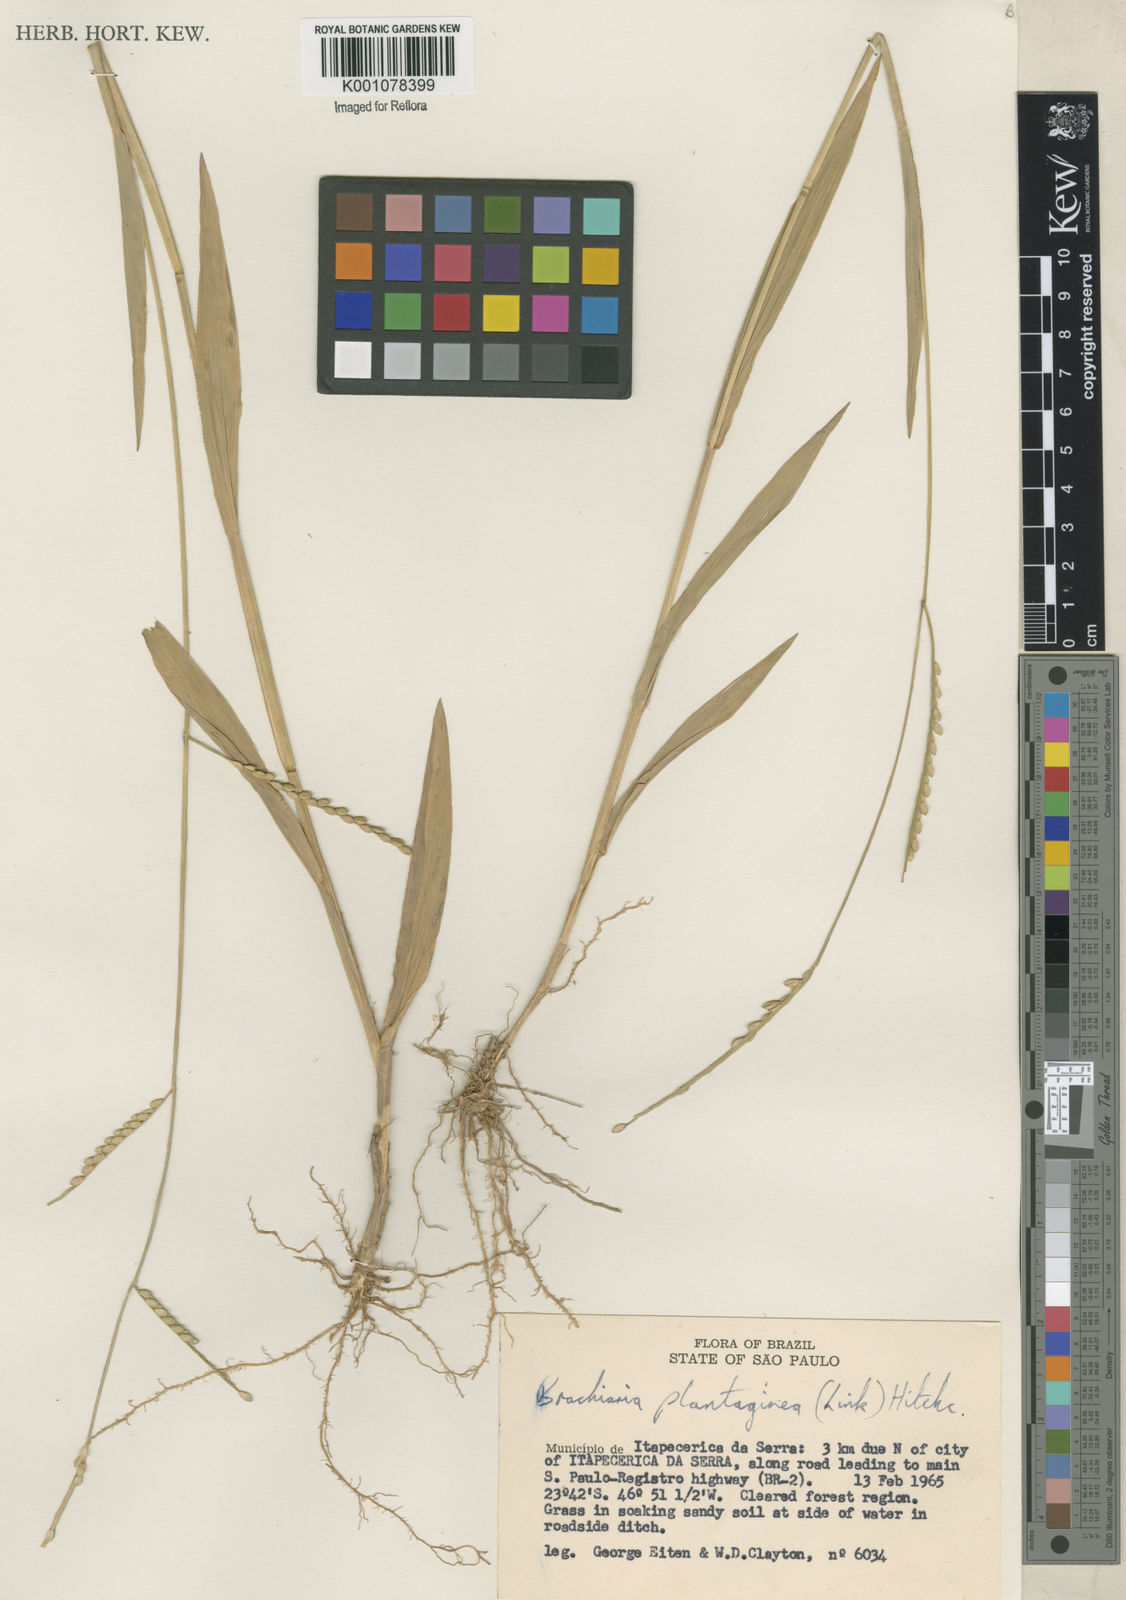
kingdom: Plantae
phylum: Tracheophyta
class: Liliopsida
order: Poales
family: Poaceae
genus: Urochloa
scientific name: Urochloa plantaginea
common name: Plantain signalgrass
